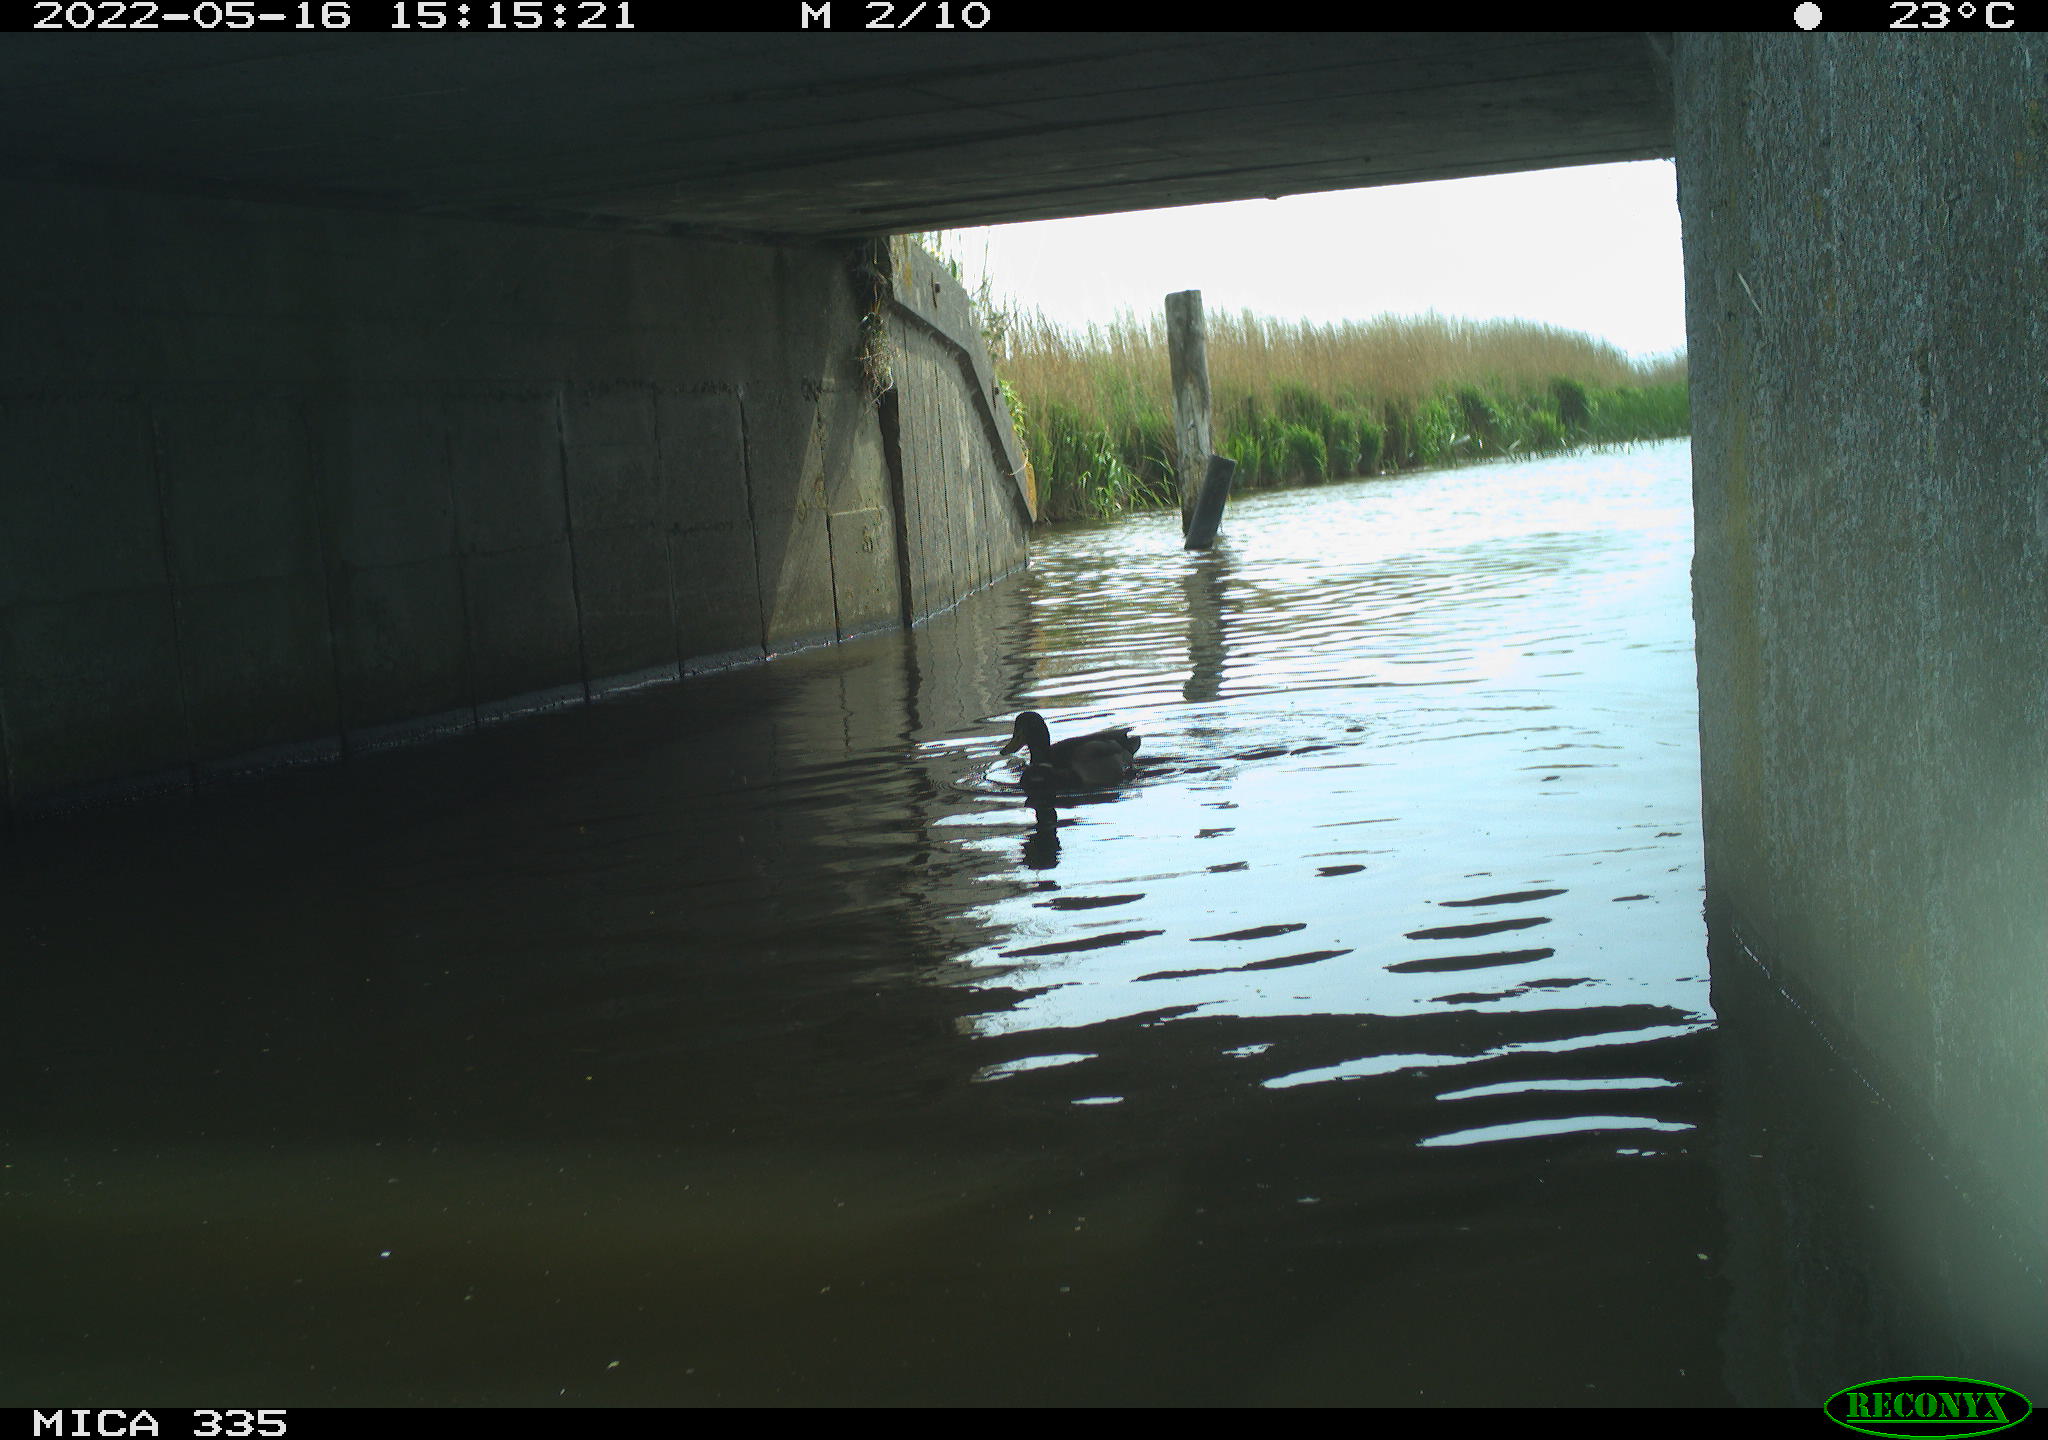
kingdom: Animalia
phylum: Chordata
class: Aves
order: Anseriformes
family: Anatidae
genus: Anas
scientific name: Anas platyrhynchos
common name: Mallard
